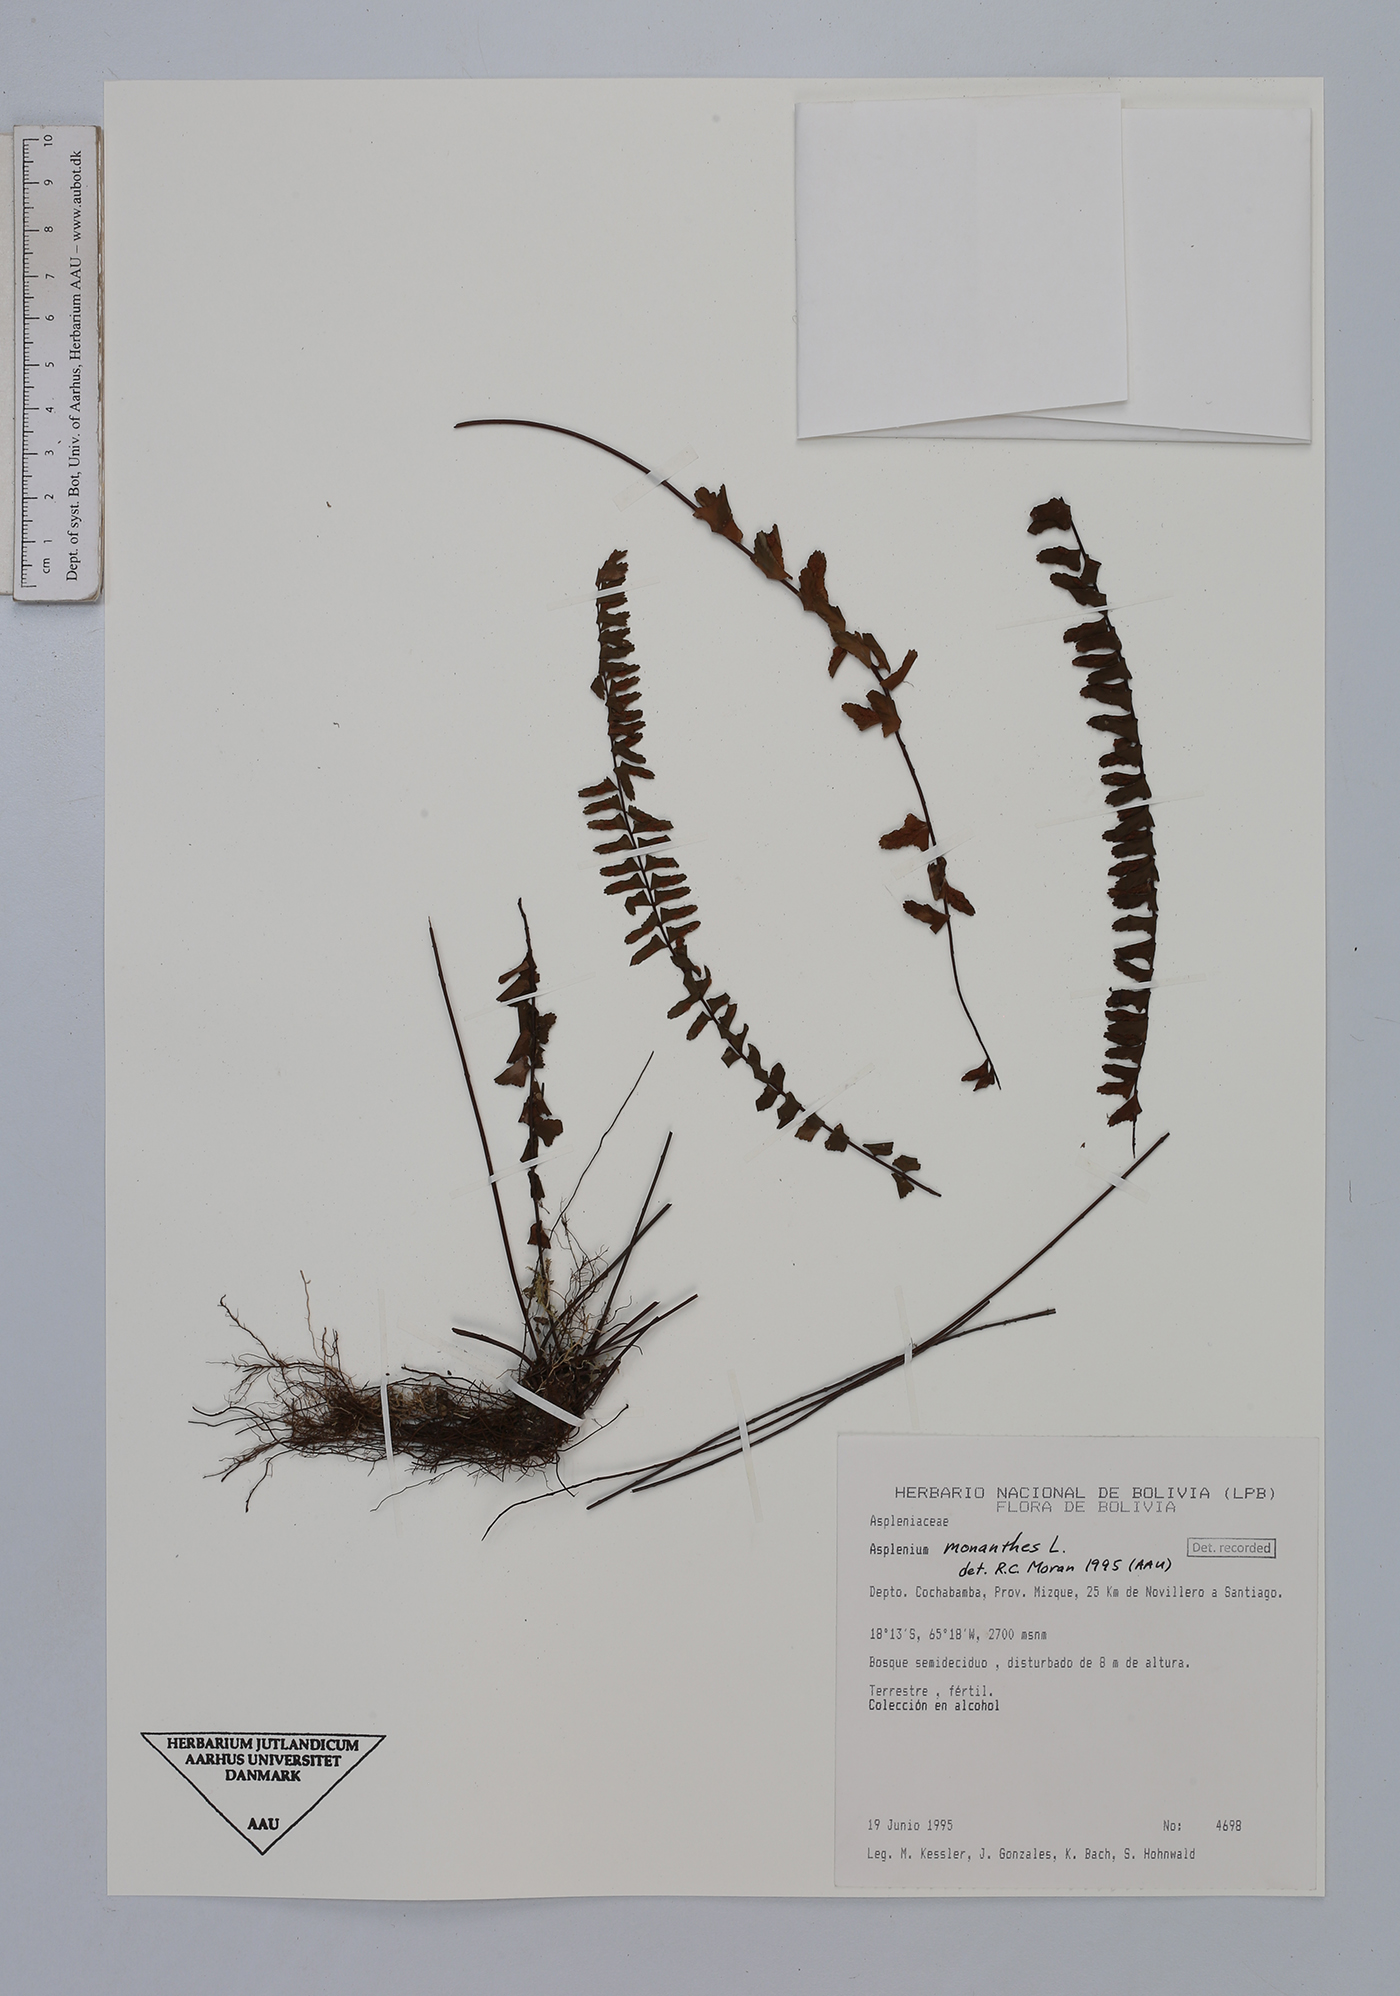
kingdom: Plantae
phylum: Tracheophyta
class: Polypodiopsida
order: Polypodiales
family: Aspleniaceae
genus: Asplenium
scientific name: Asplenium monanthes
